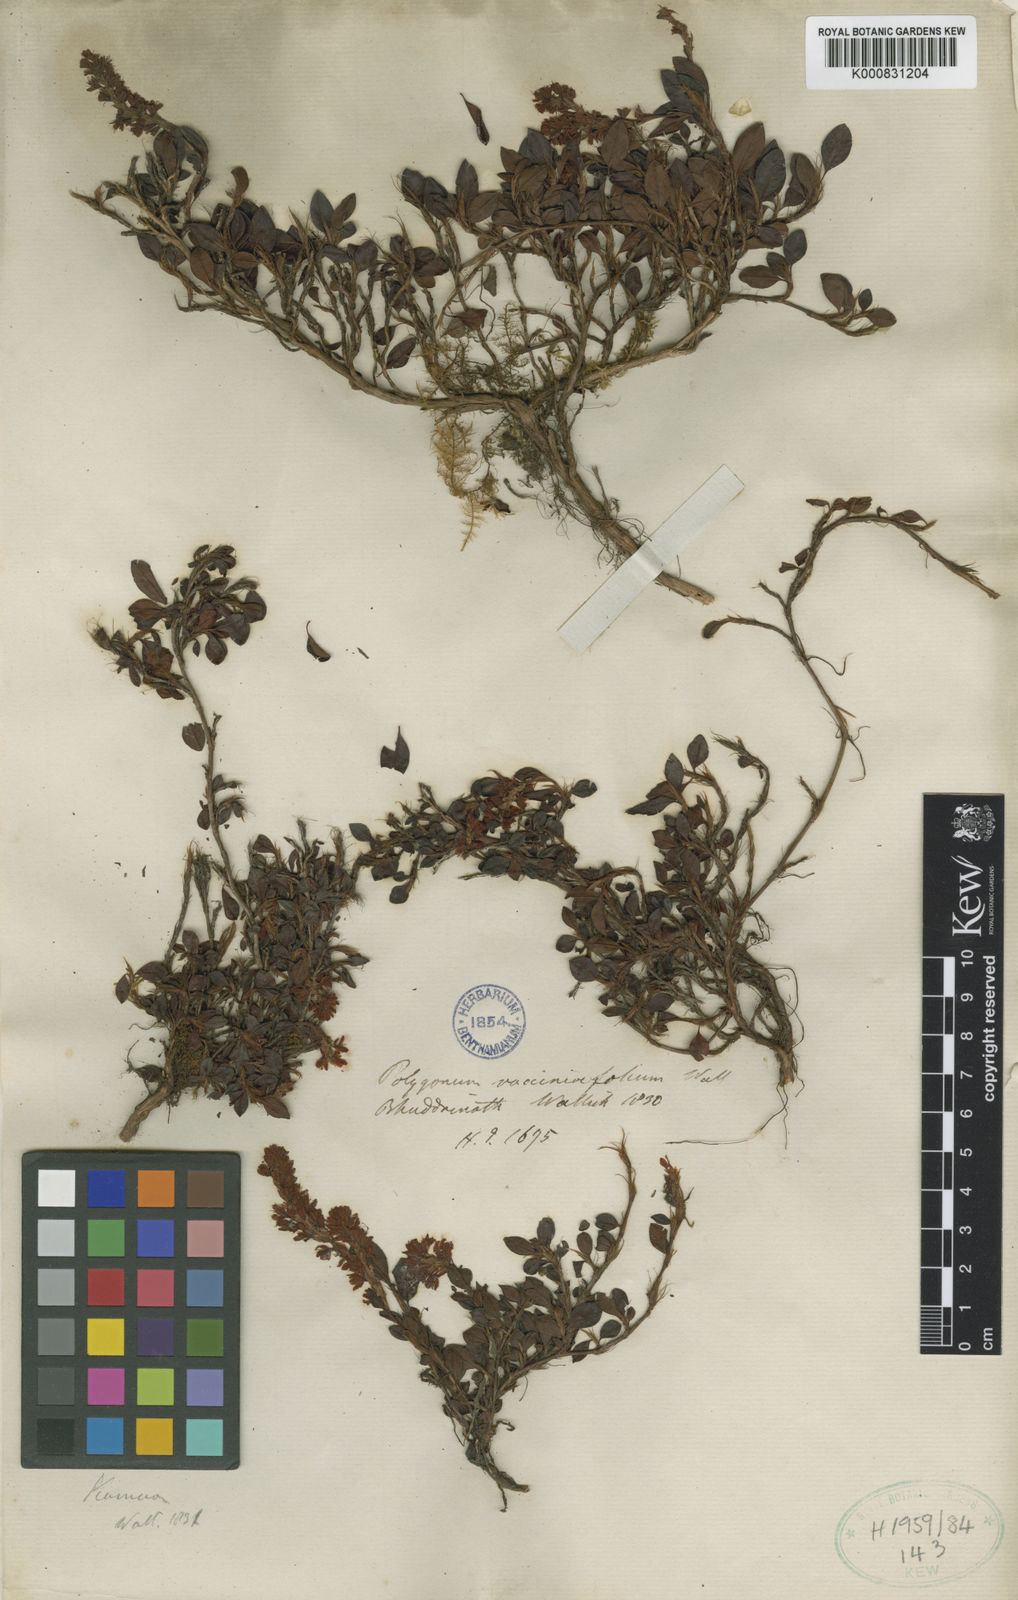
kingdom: Plantae
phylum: Tracheophyta
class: Magnoliopsida
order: Caryophyllales
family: Polygonaceae
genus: Bistorta
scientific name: Bistorta vacciniifolia
